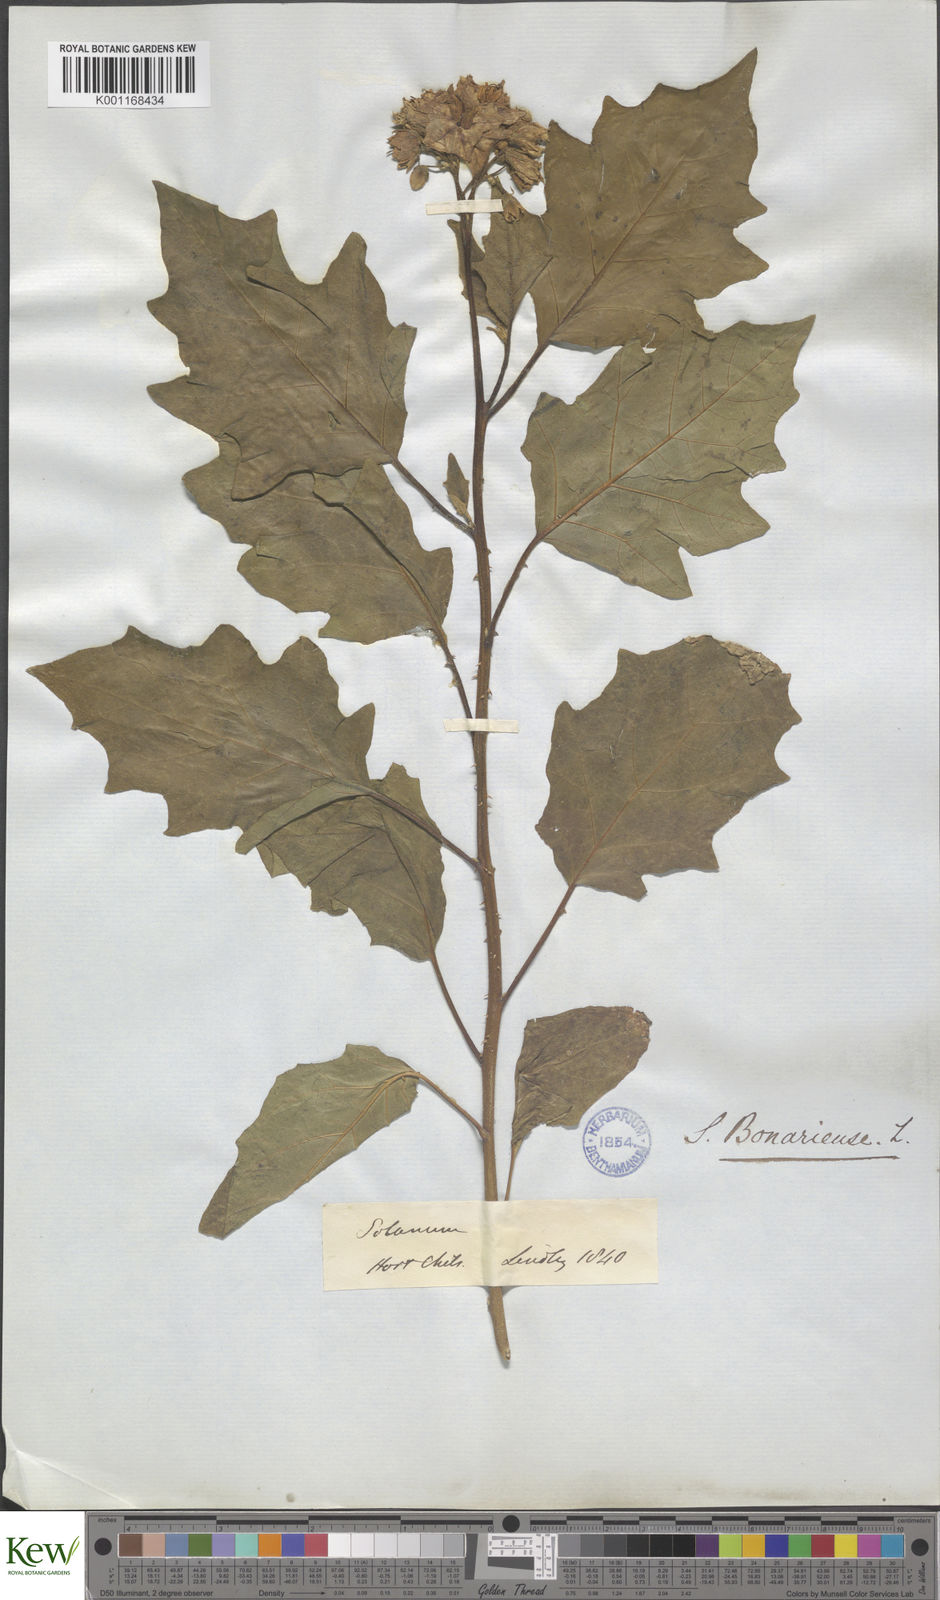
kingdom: Plantae
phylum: Tracheophyta
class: Magnoliopsida
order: Solanales
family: Solanaceae
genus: Solanum
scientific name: Solanum bonariense
